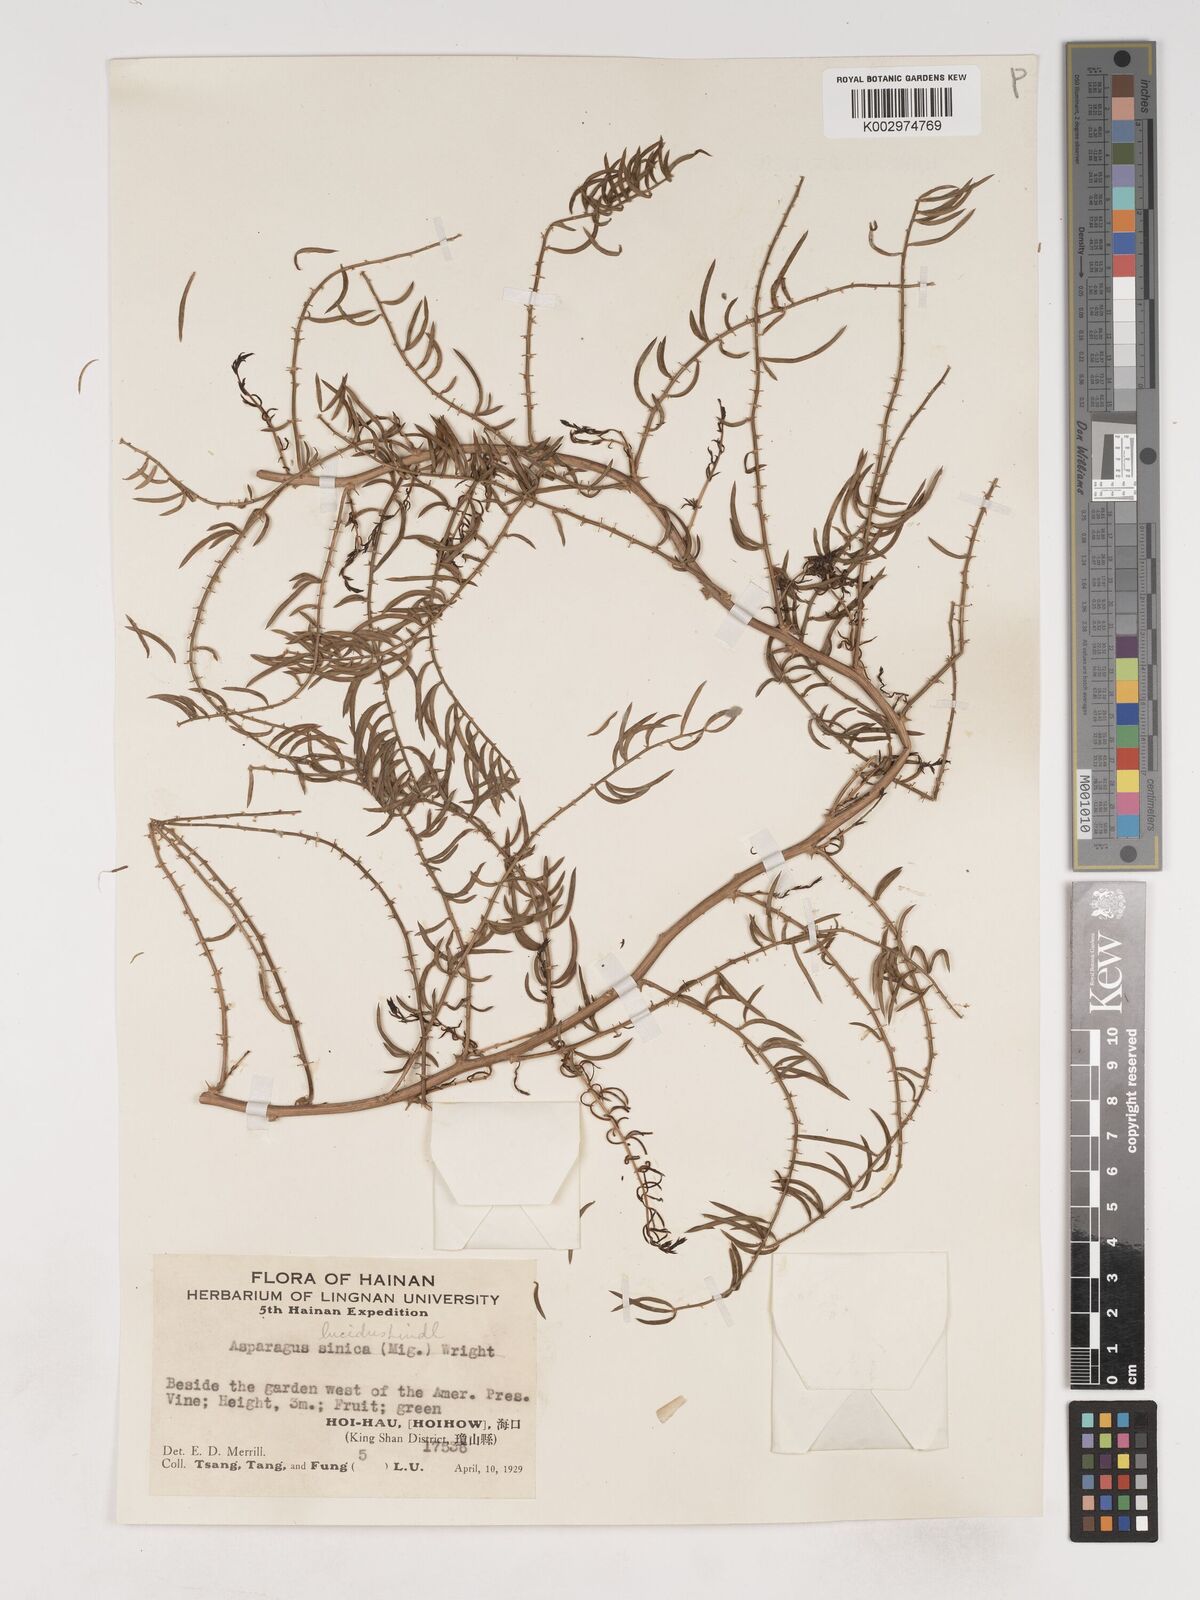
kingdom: Plantae
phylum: Tracheophyta
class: Liliopsida
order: Asparagales
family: Asparagaceae
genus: Asparagus
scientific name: Asparagus cochinchinensis
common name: Chinese asparagus
